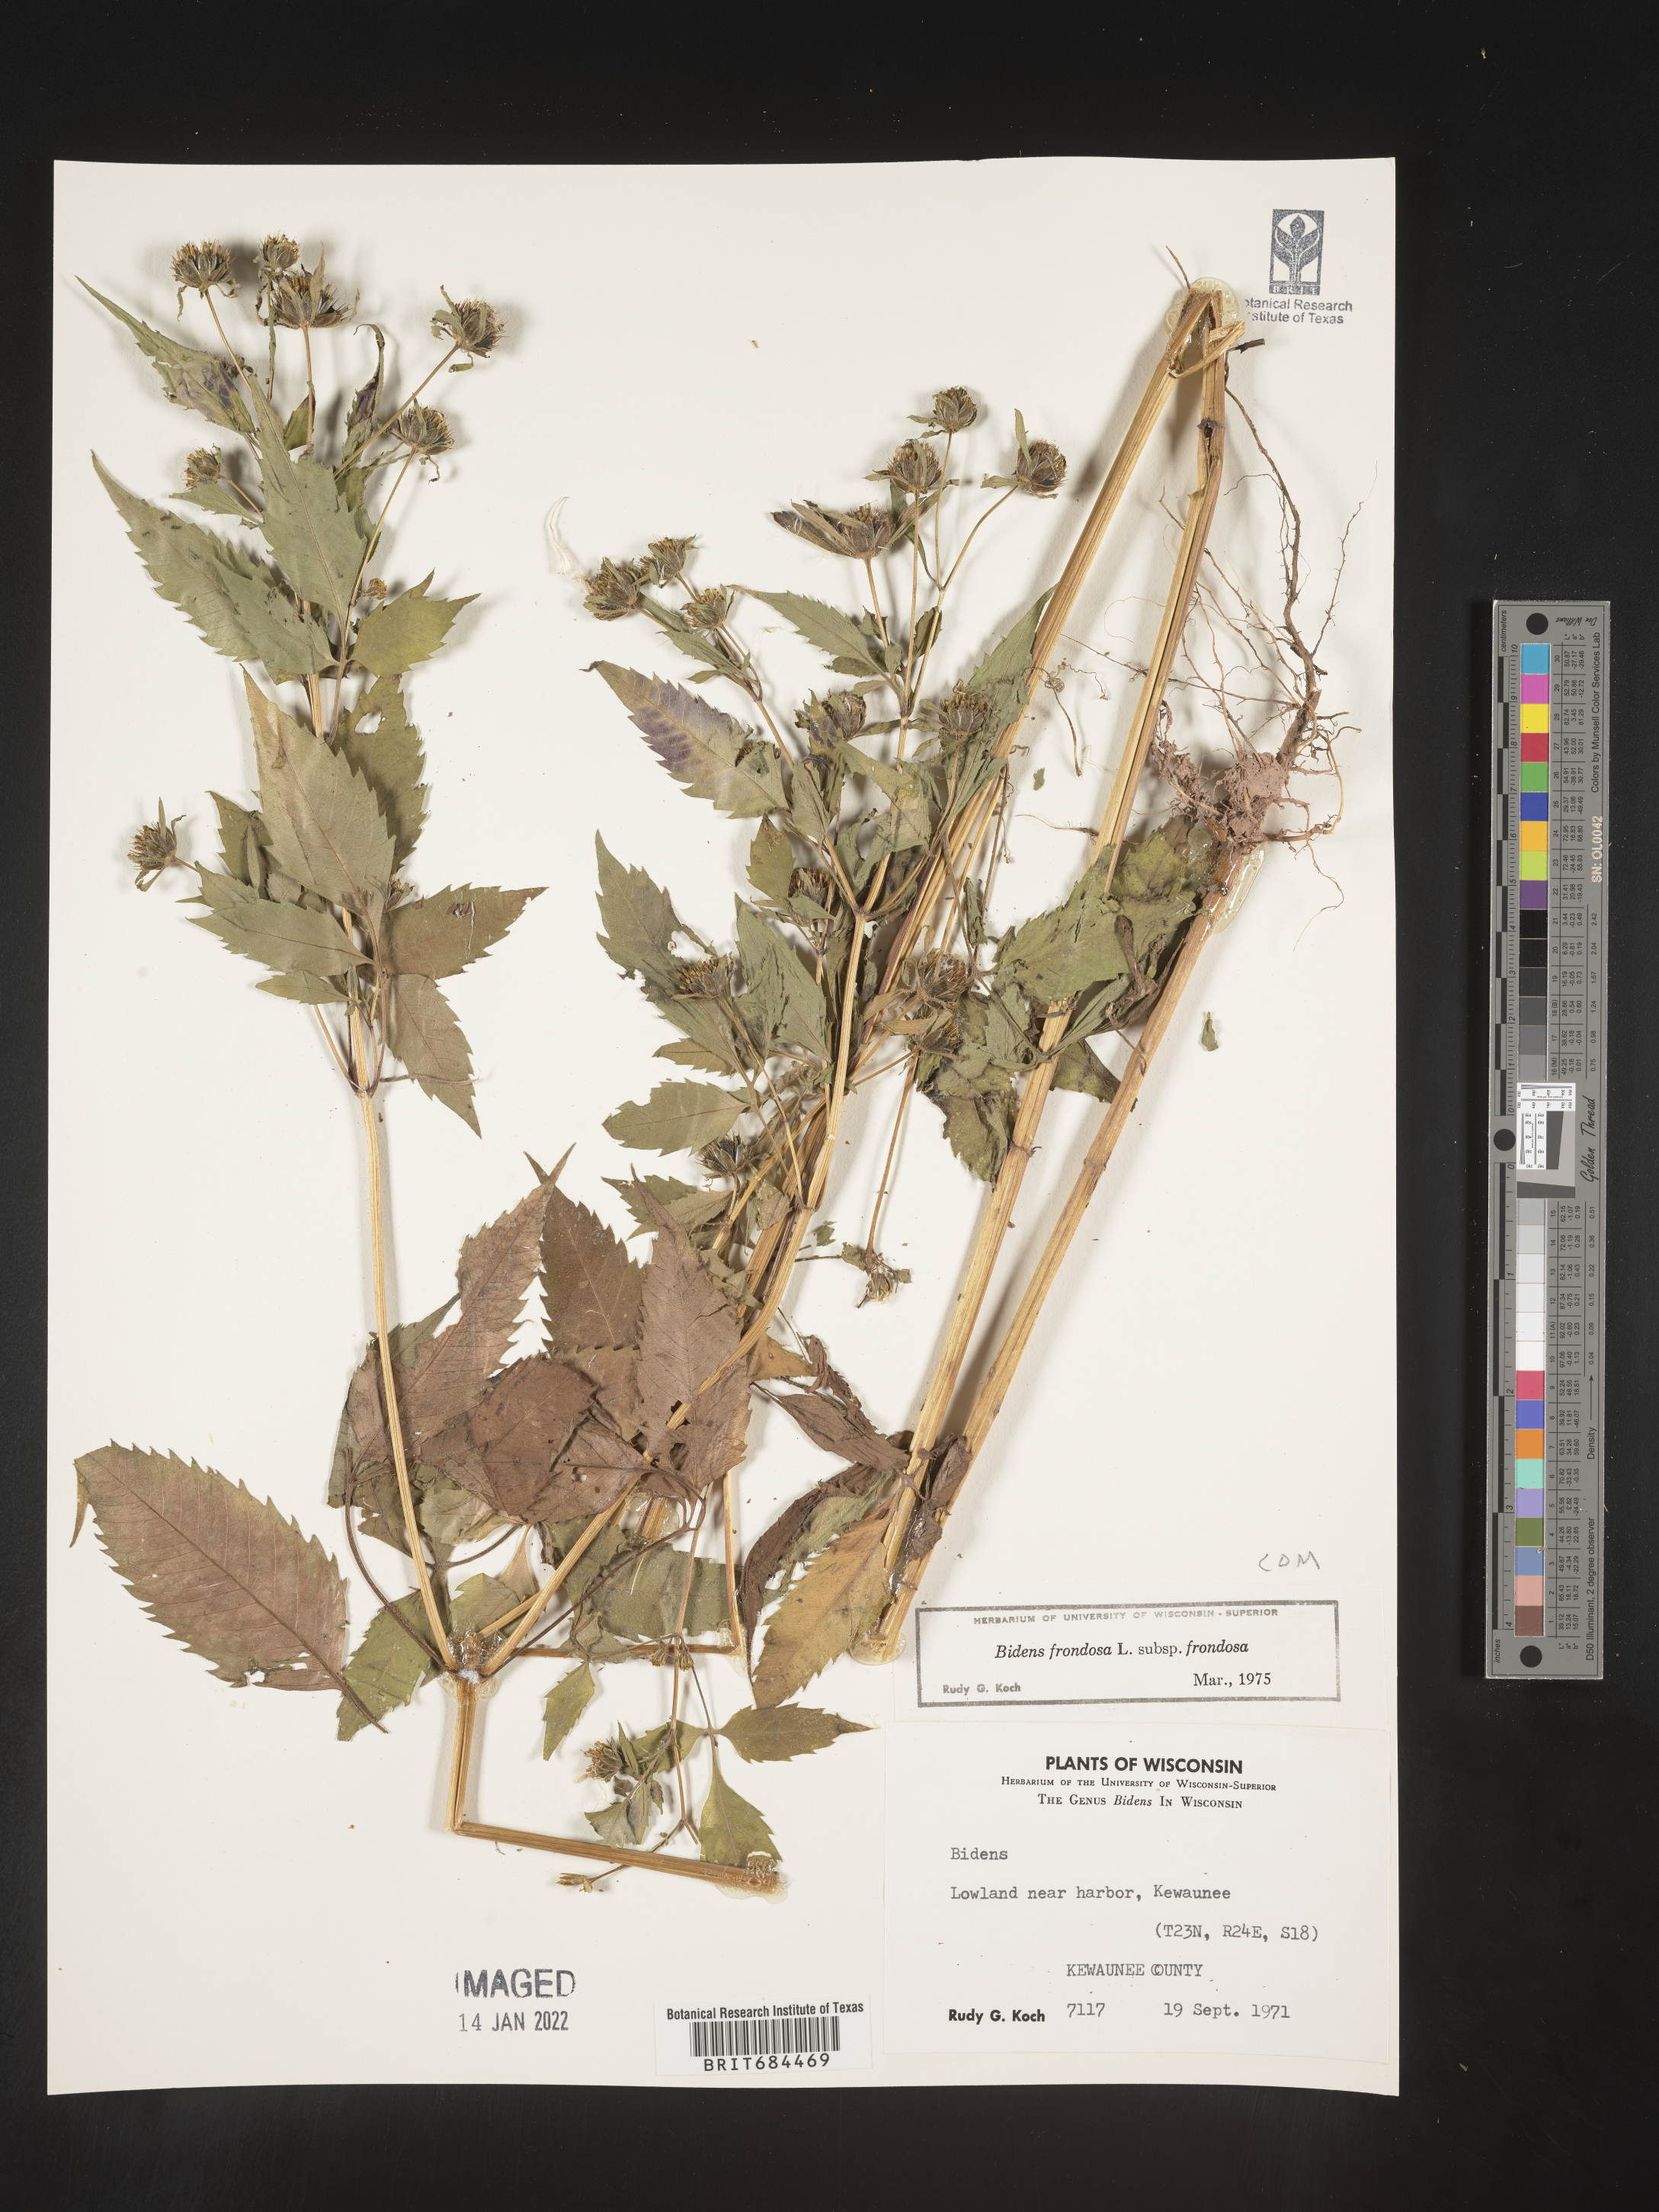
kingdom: Plantae
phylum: Tracheophyta
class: Magnoliopsida
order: Asterales
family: Asteraceae
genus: Bidens
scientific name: Bidens frondosa
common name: Beggarticks
